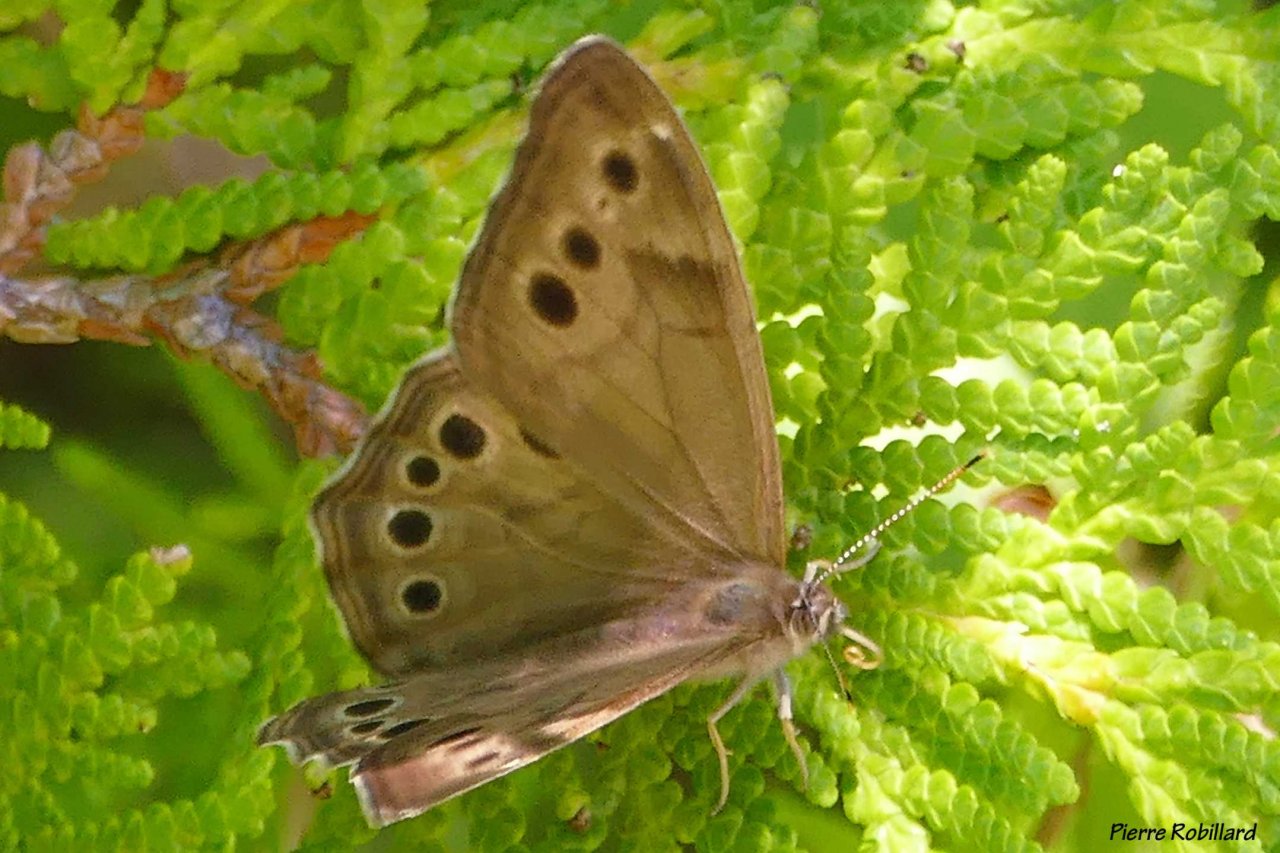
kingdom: Animalia
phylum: Arthropoda
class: Insecta
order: Lepidoptera
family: Nymphalidae
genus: Lethe
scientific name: Lethe anthedon
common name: Northern Pearly-Eye
